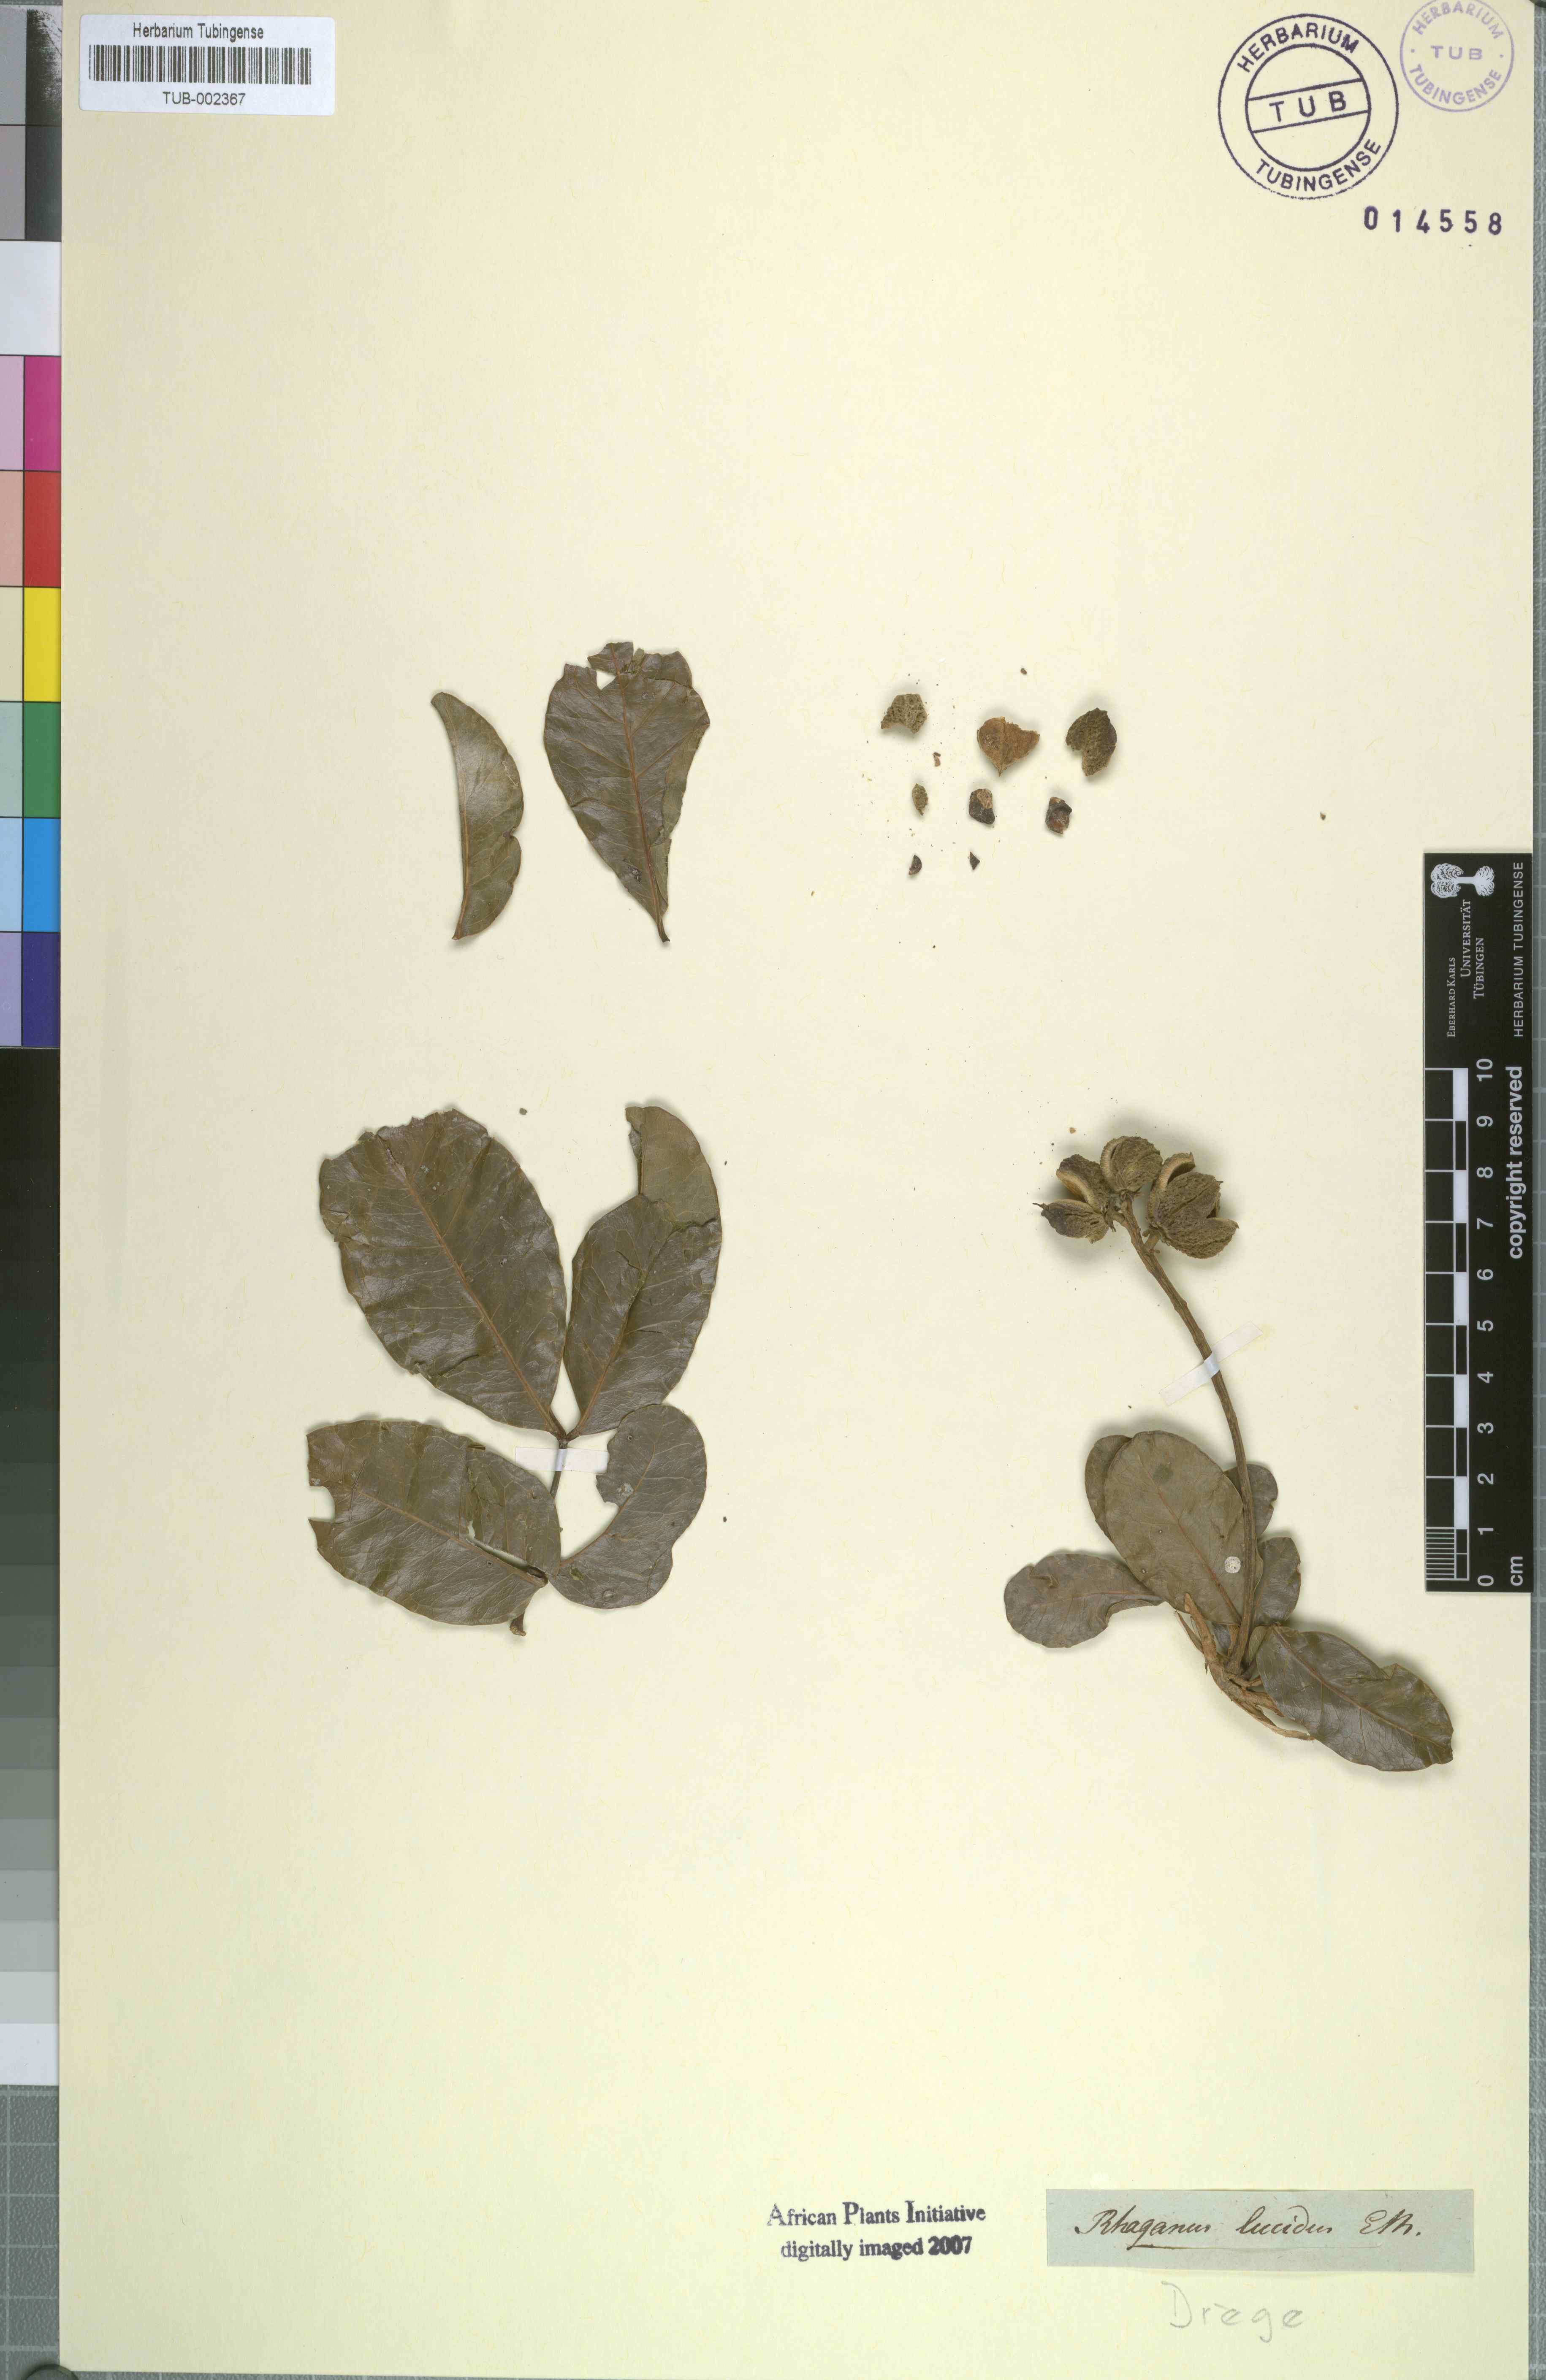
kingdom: Plantae
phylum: Tracheophyta
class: Magnoliopsida
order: Geraniales
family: Melianthaceae
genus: Bersama
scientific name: Bersama lucens
